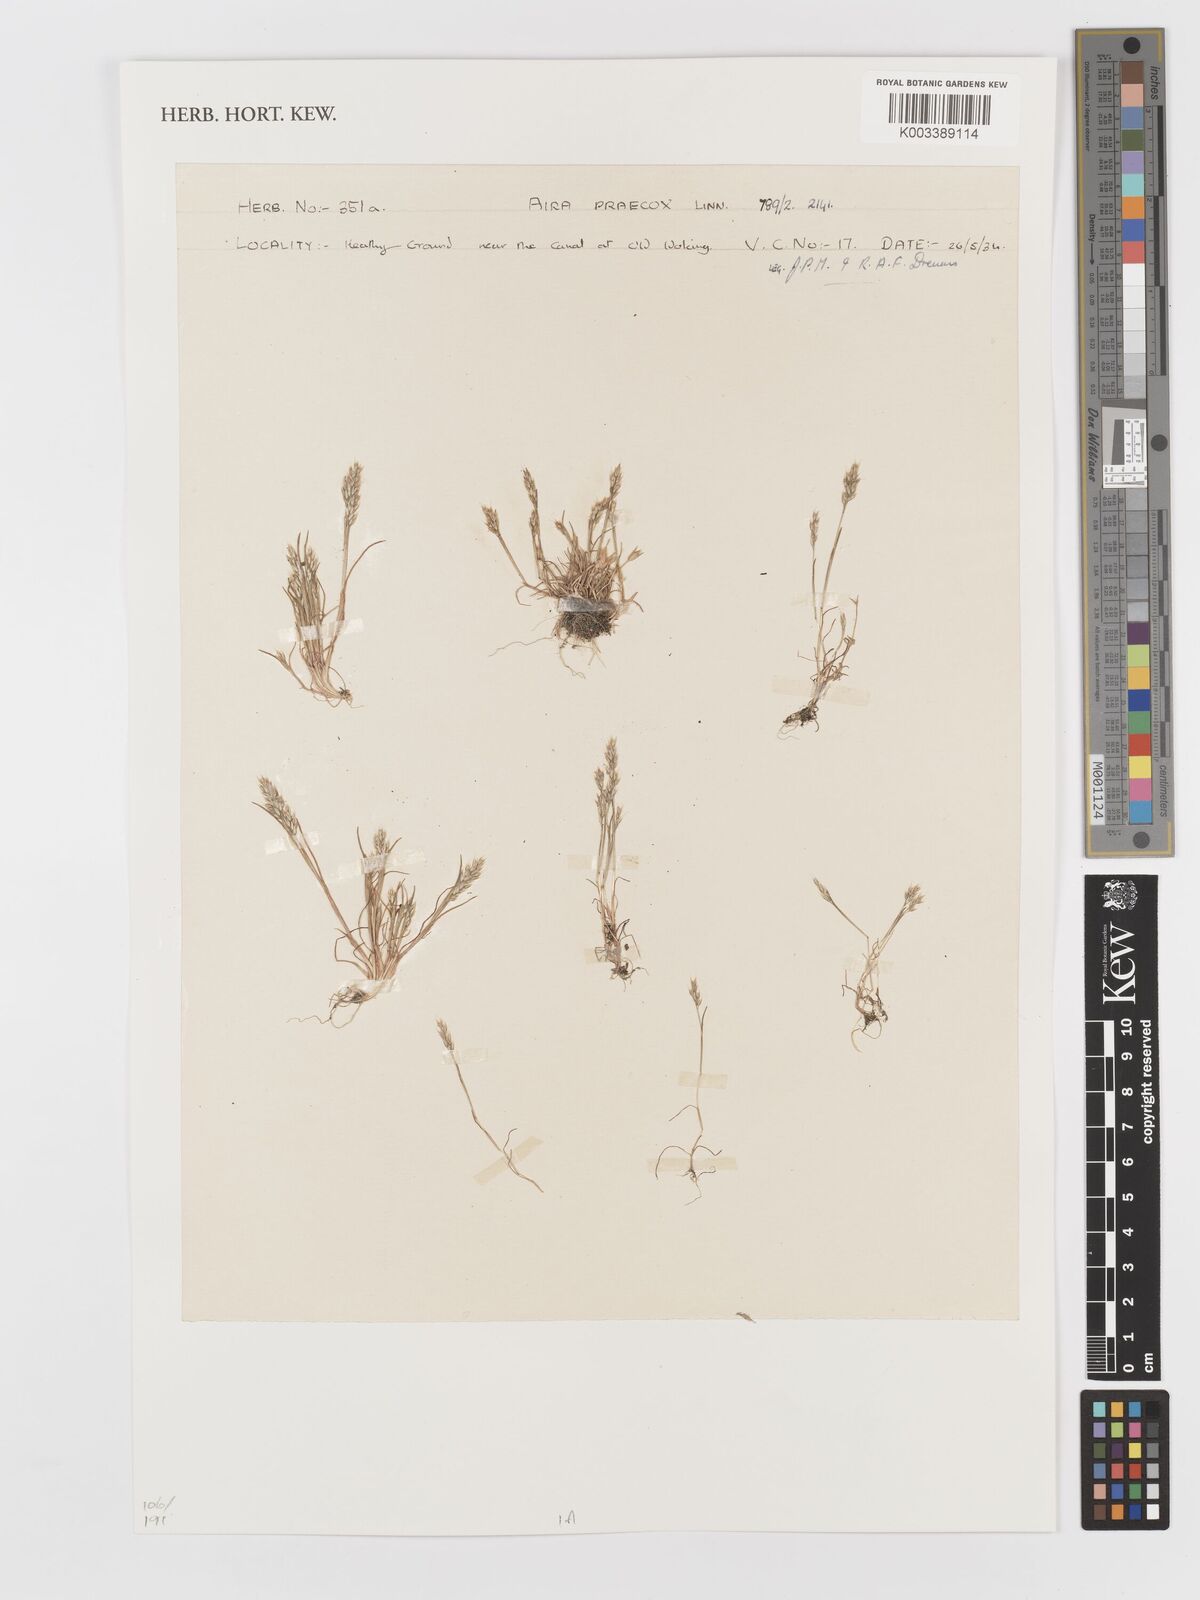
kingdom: Plantae
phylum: Tracheophyta
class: Liliopsida
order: Poales
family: Poaceae
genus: Aira
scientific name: Aira praecox
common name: Early hair-grass
